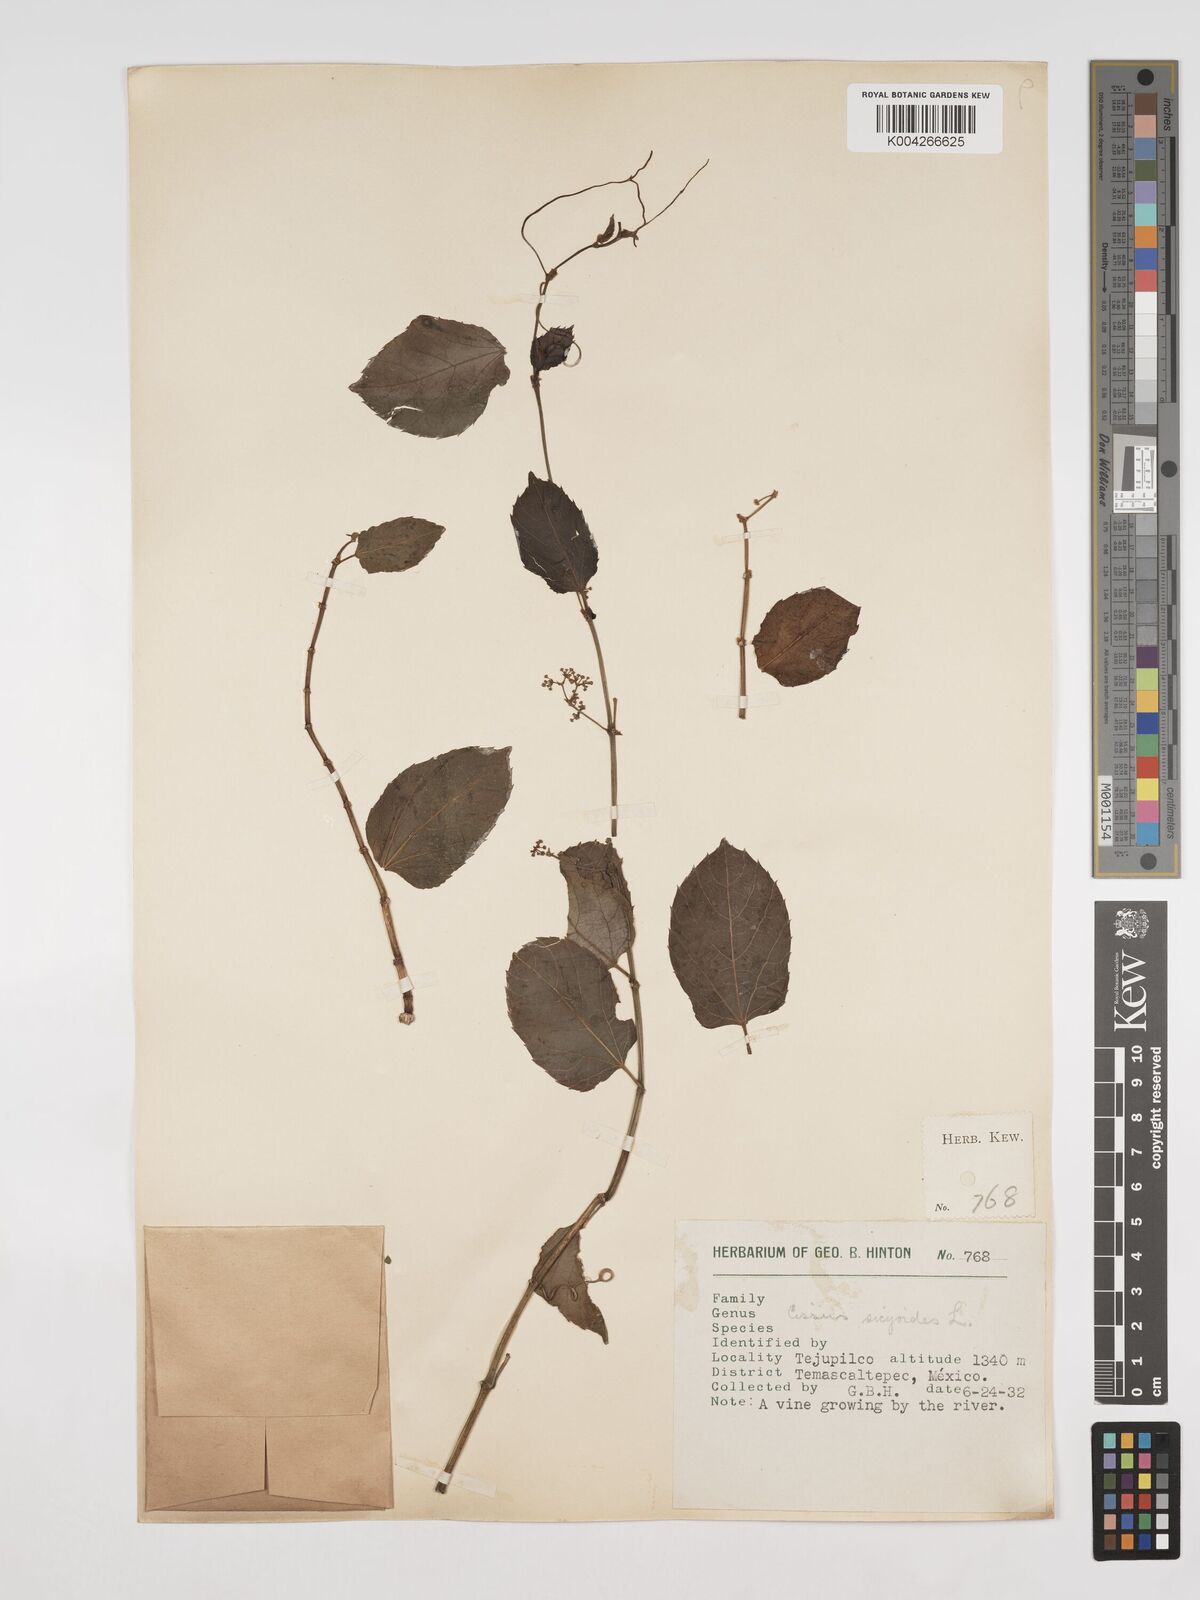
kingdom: Plantae
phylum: Tracheophyta
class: Magnoliopsida
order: Vitales
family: Vitaceae
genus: Cissus
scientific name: Cissus
